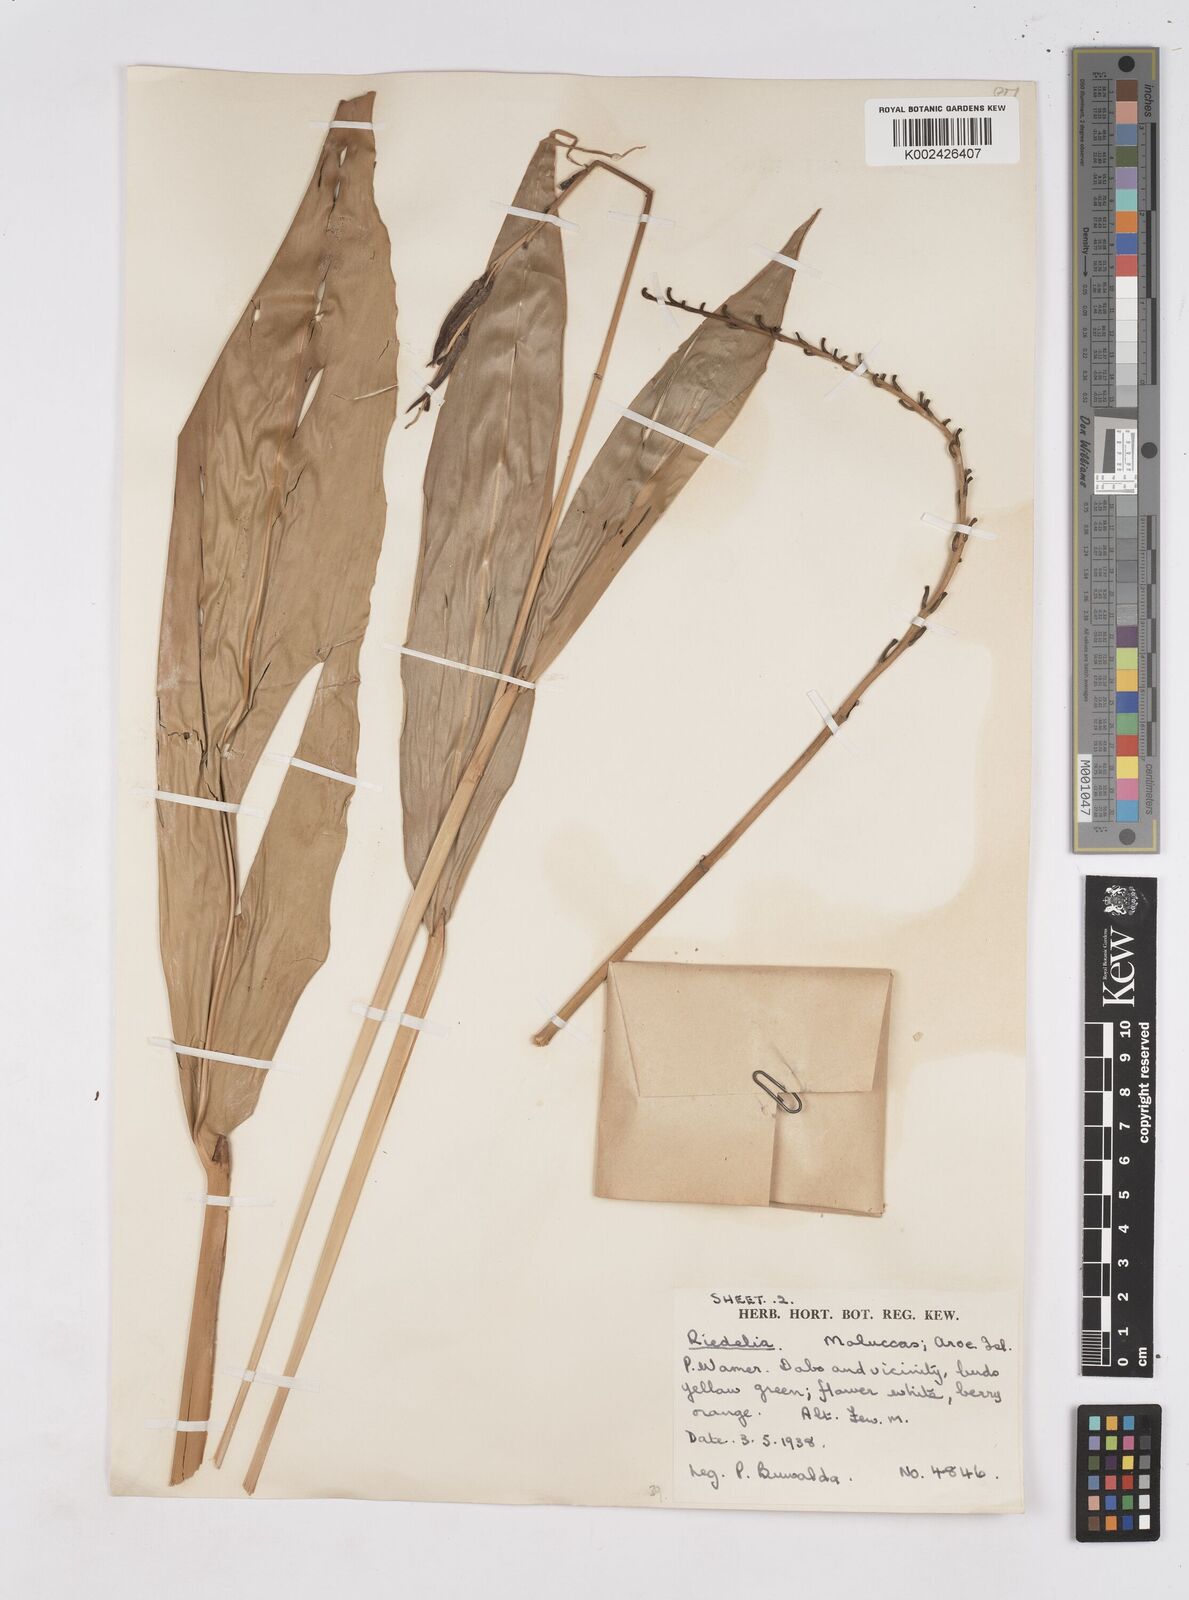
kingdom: Plantae
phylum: Tracheophyta
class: Liliopsida
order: Zingiberales
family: Zingiberaceae
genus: Riedelia
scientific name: Riedelia lanata
